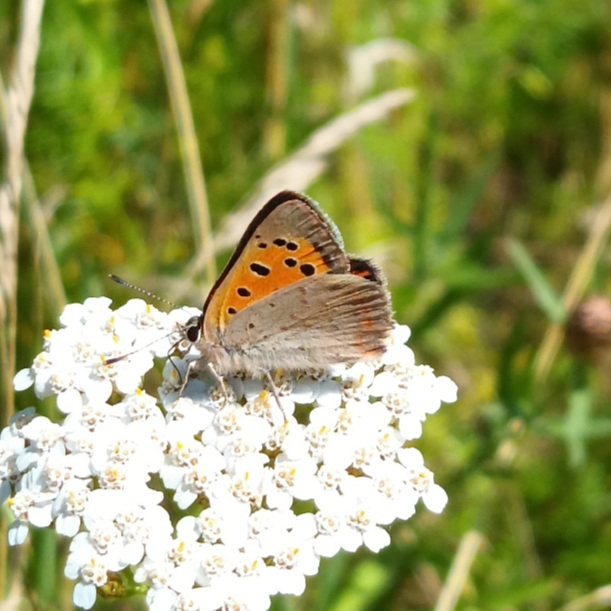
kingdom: Animalia
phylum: Arthropoda
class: Insecta
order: Lepidoptera
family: Lycaenidae
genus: Lycaena
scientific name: Lycaena phlaeas
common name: Lille ildfugl
